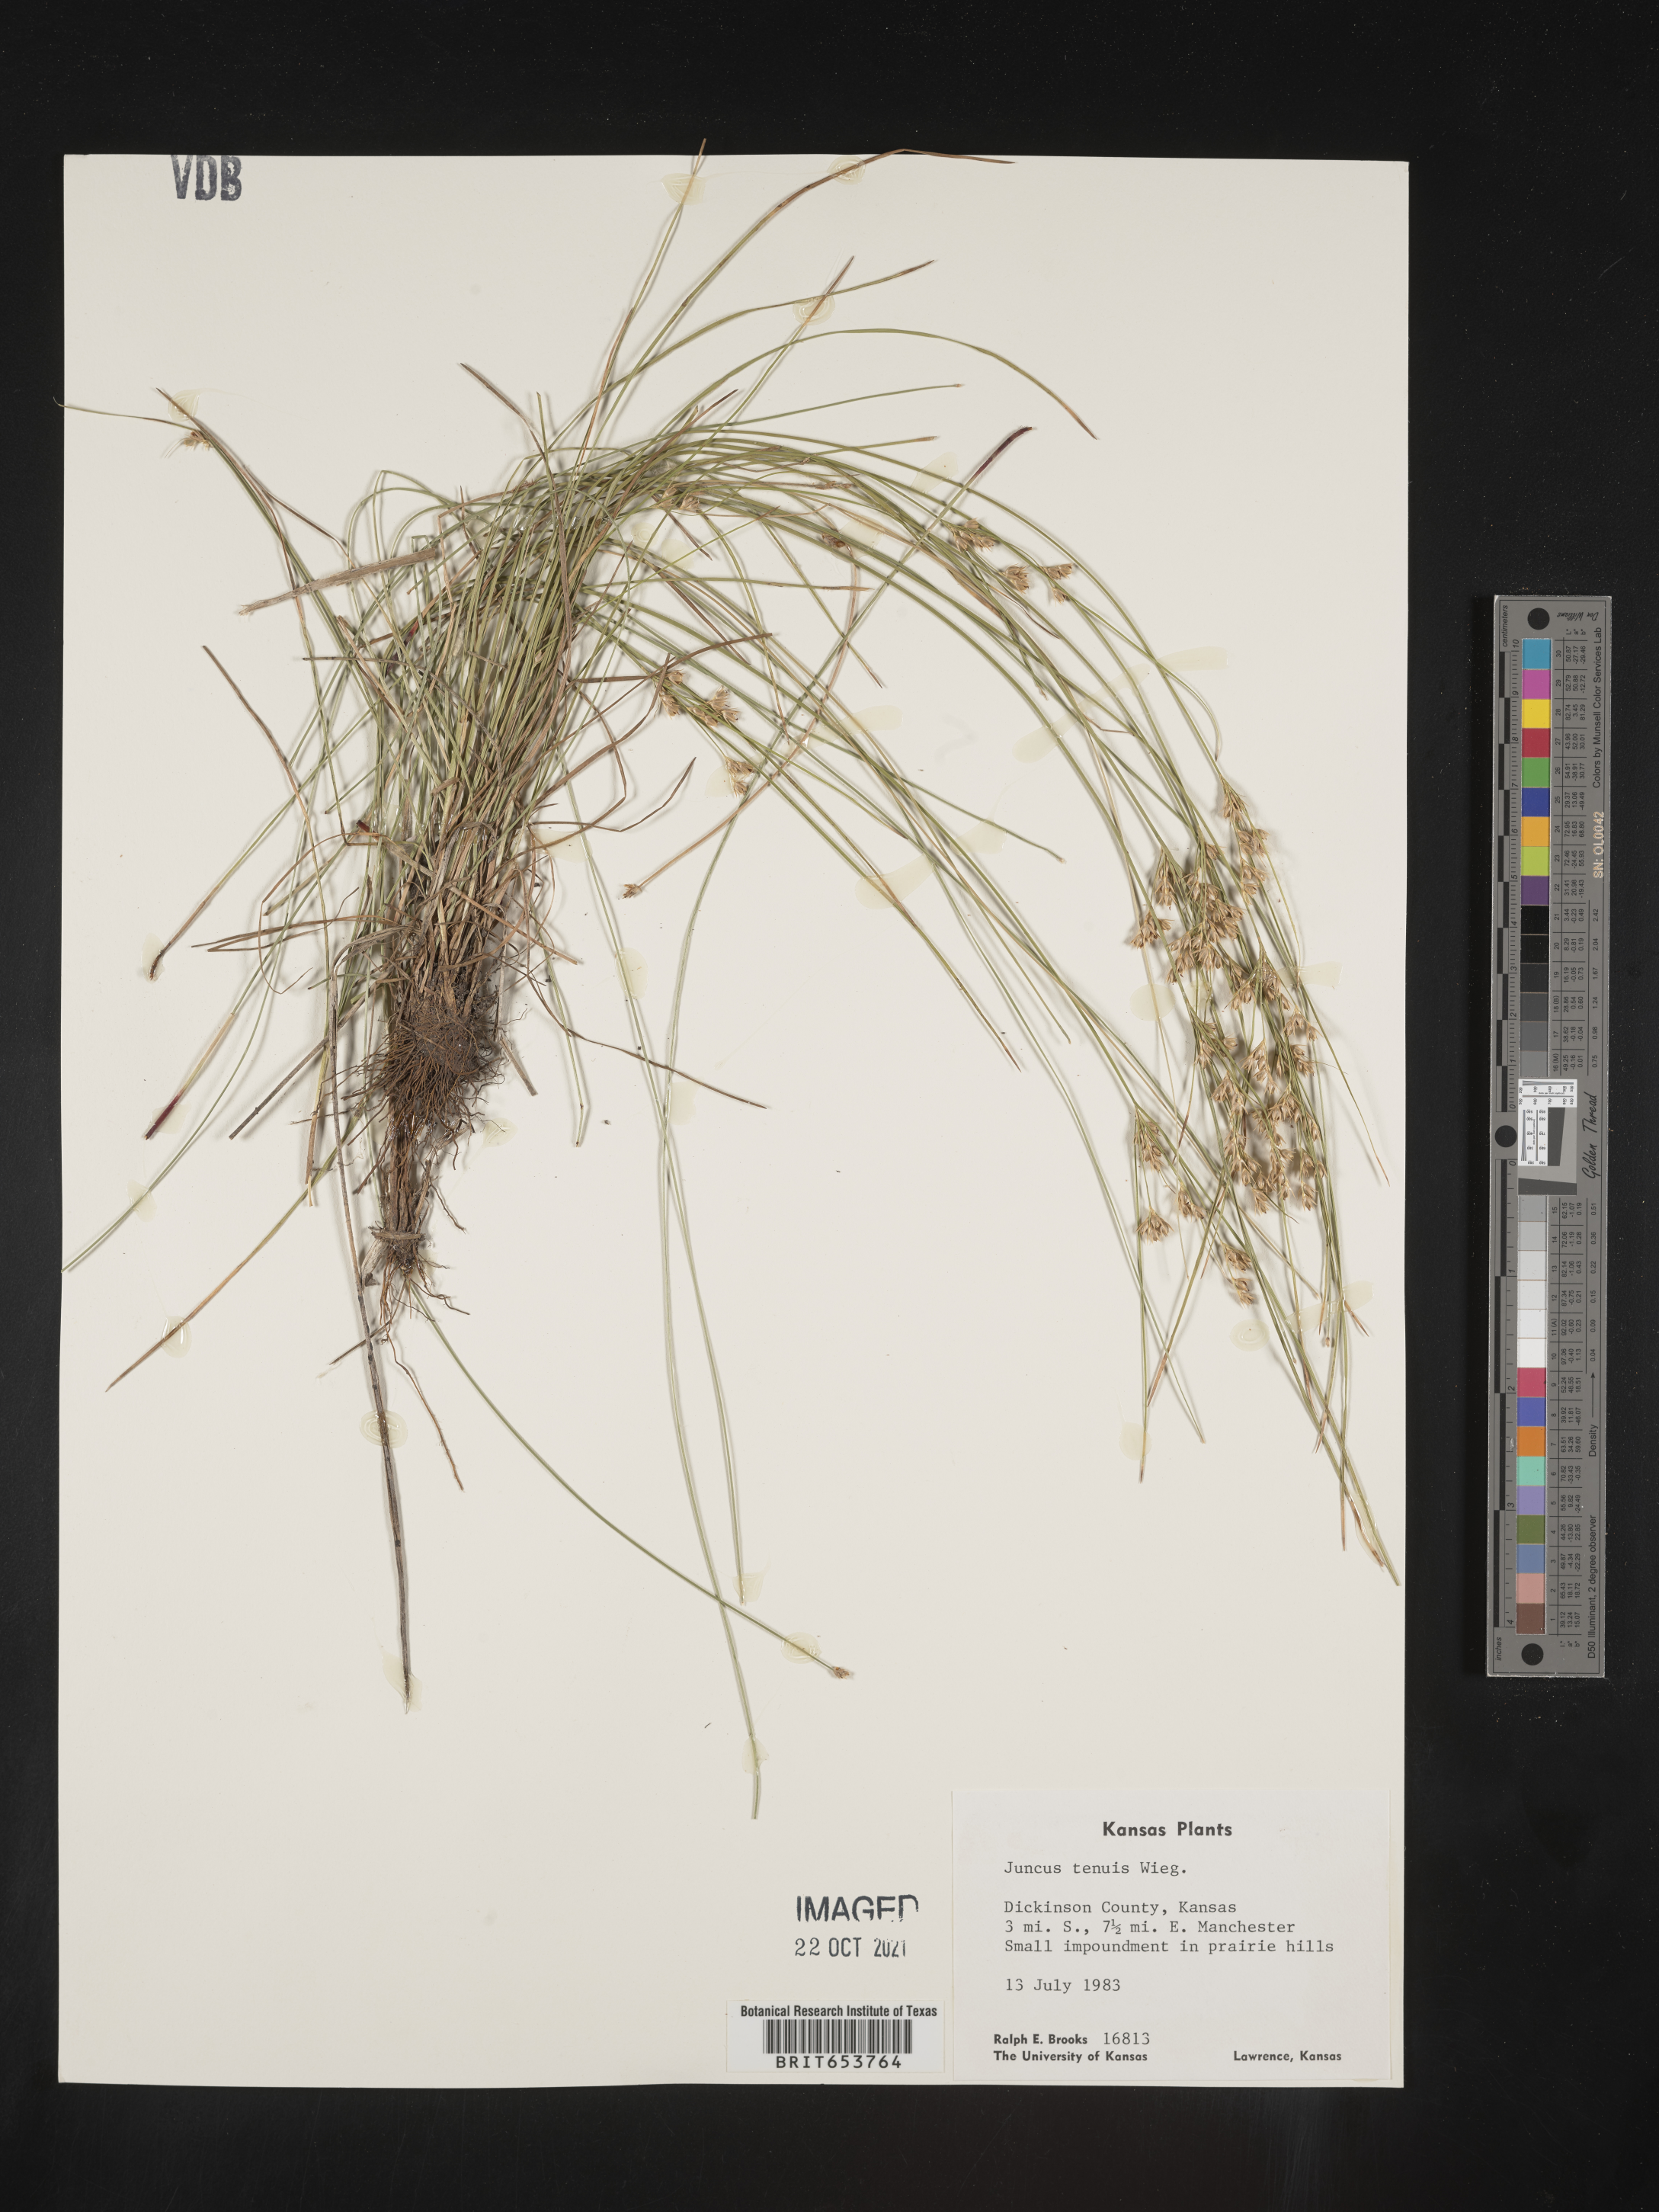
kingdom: Plantae
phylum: Tracheophyta
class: Liliopsida
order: Poales
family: Juncaceae
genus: Juncus
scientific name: Juncus tenuis
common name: Slender rush
